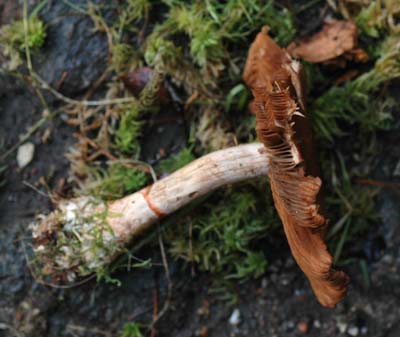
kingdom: Fungi
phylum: Basidiomycota
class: Agaricomycetes
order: Agaricales
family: Cortinariaceae
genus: Cortinarius
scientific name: Cortinarius armillatus
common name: cinnoberbæltet slørhat
